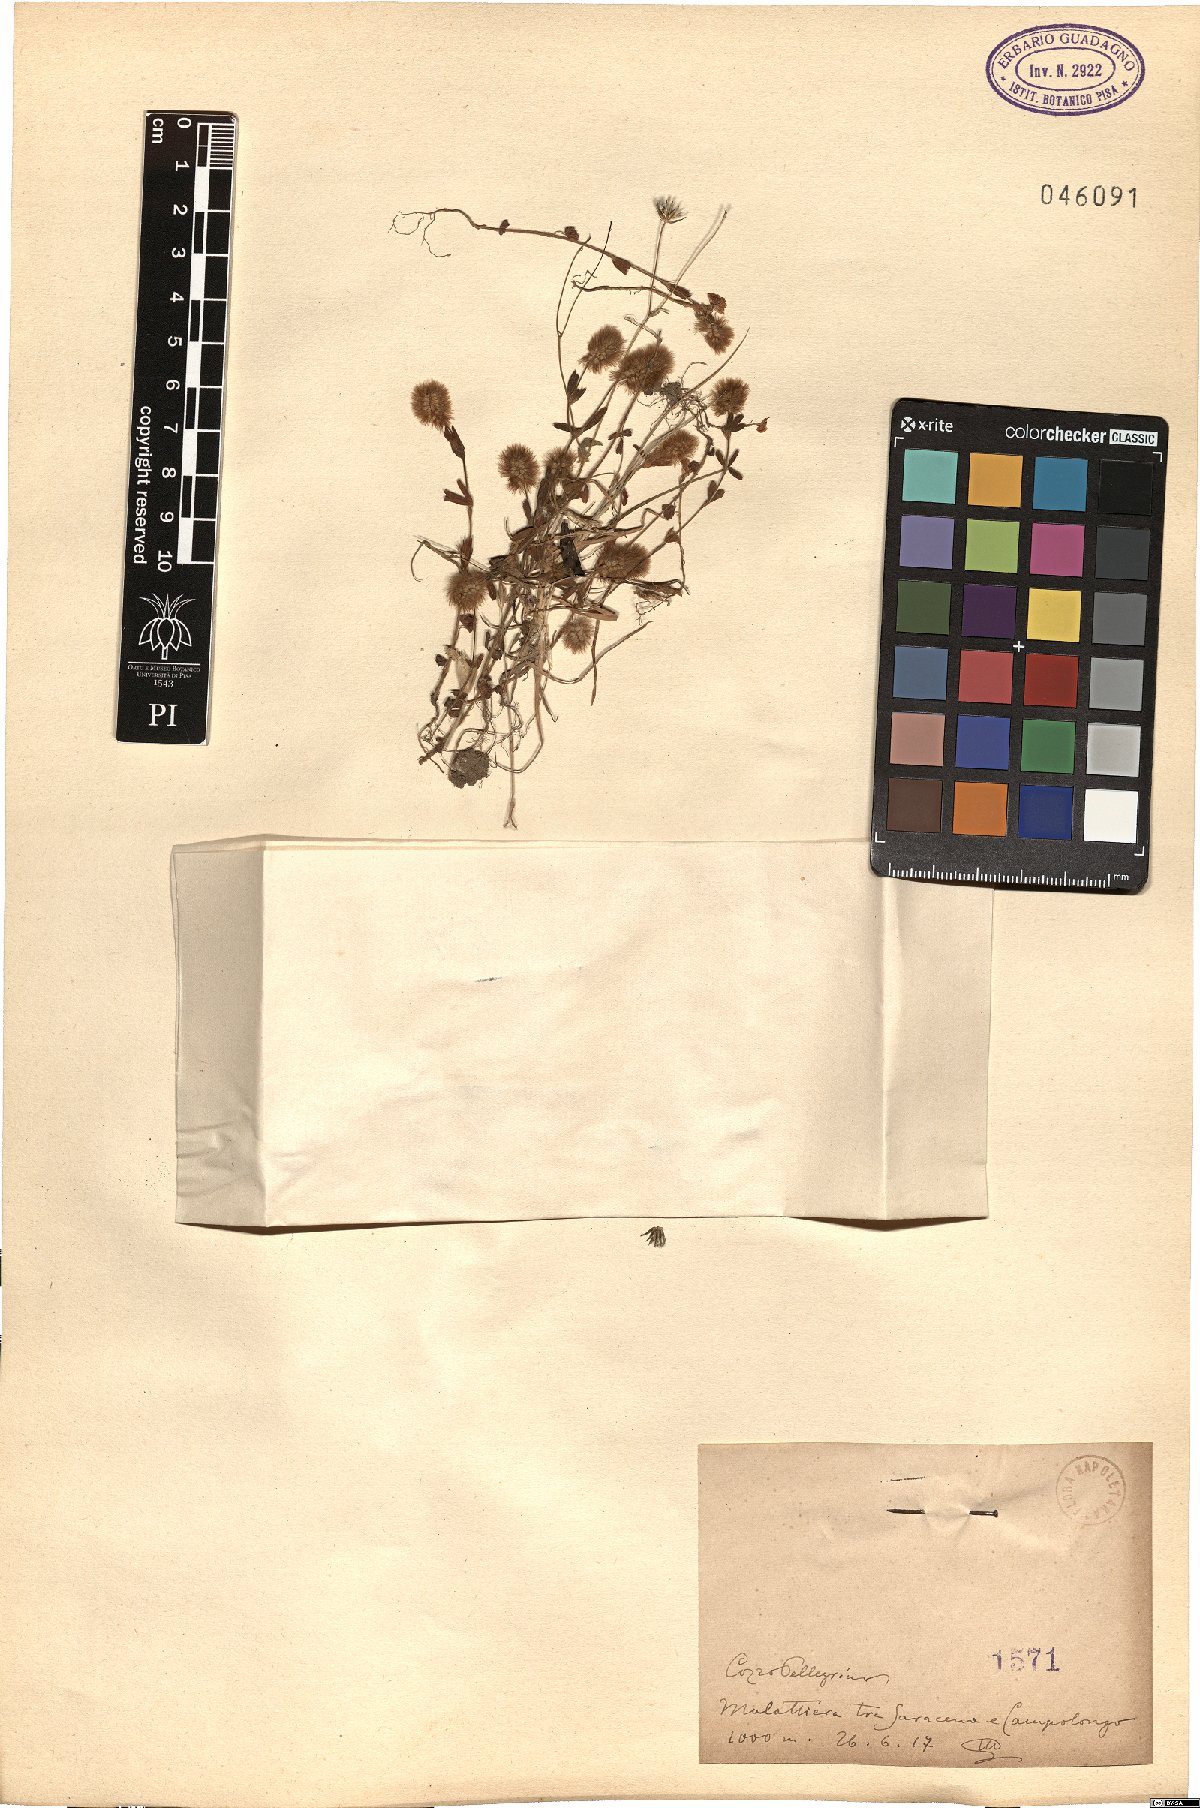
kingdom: Plantae
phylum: Tracheophyta
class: Magnoliopsida
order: Fabales
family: Fabaceae
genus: Trifolium
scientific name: Trifolium
